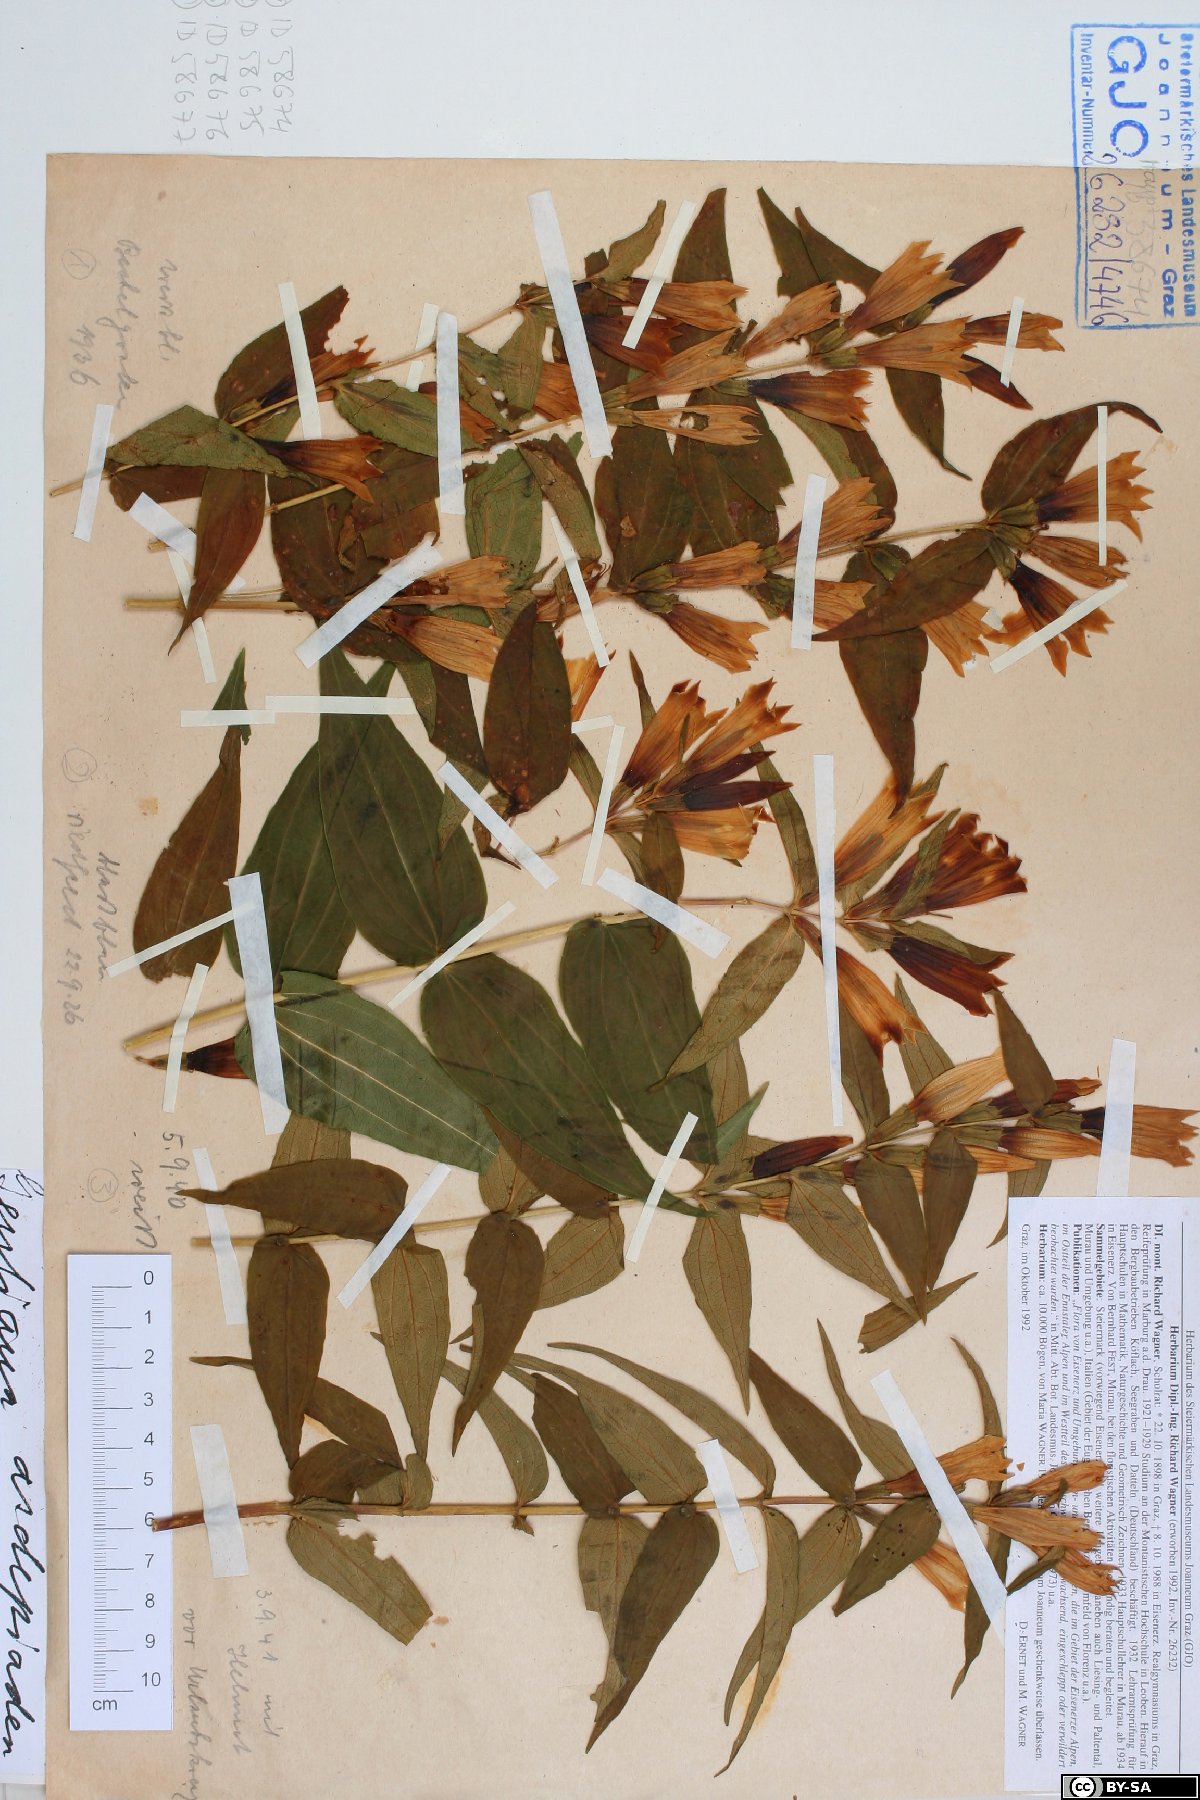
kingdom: Plantae
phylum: Tracheophyta
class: Magnoliopsida
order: Gentianales
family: Gentianaceae
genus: Gentiana
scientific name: Gentiana asclepiadea
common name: Willow gentian
